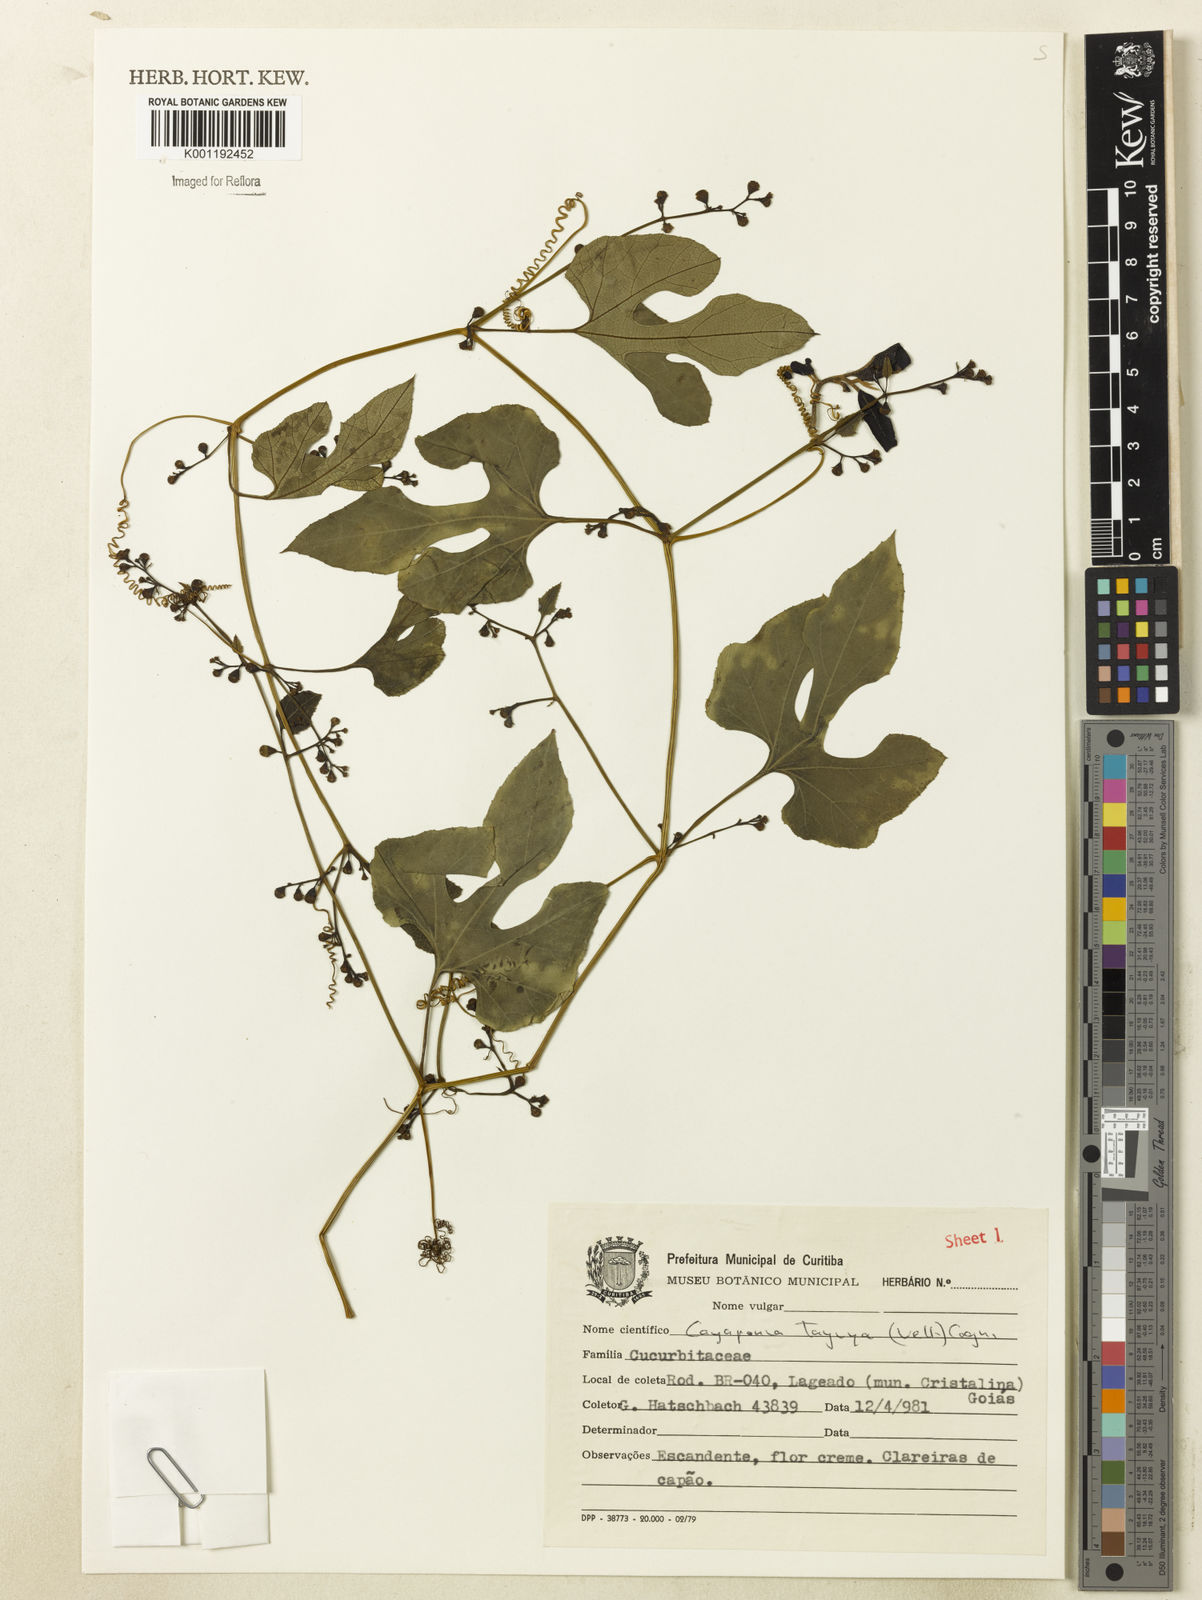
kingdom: Plantae
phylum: Tracheophyta
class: Magnoliopsida
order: Cucurbitales
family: Cucurbitaceae
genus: Cayaponia
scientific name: Cayaponia tayuya
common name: Tayuya
